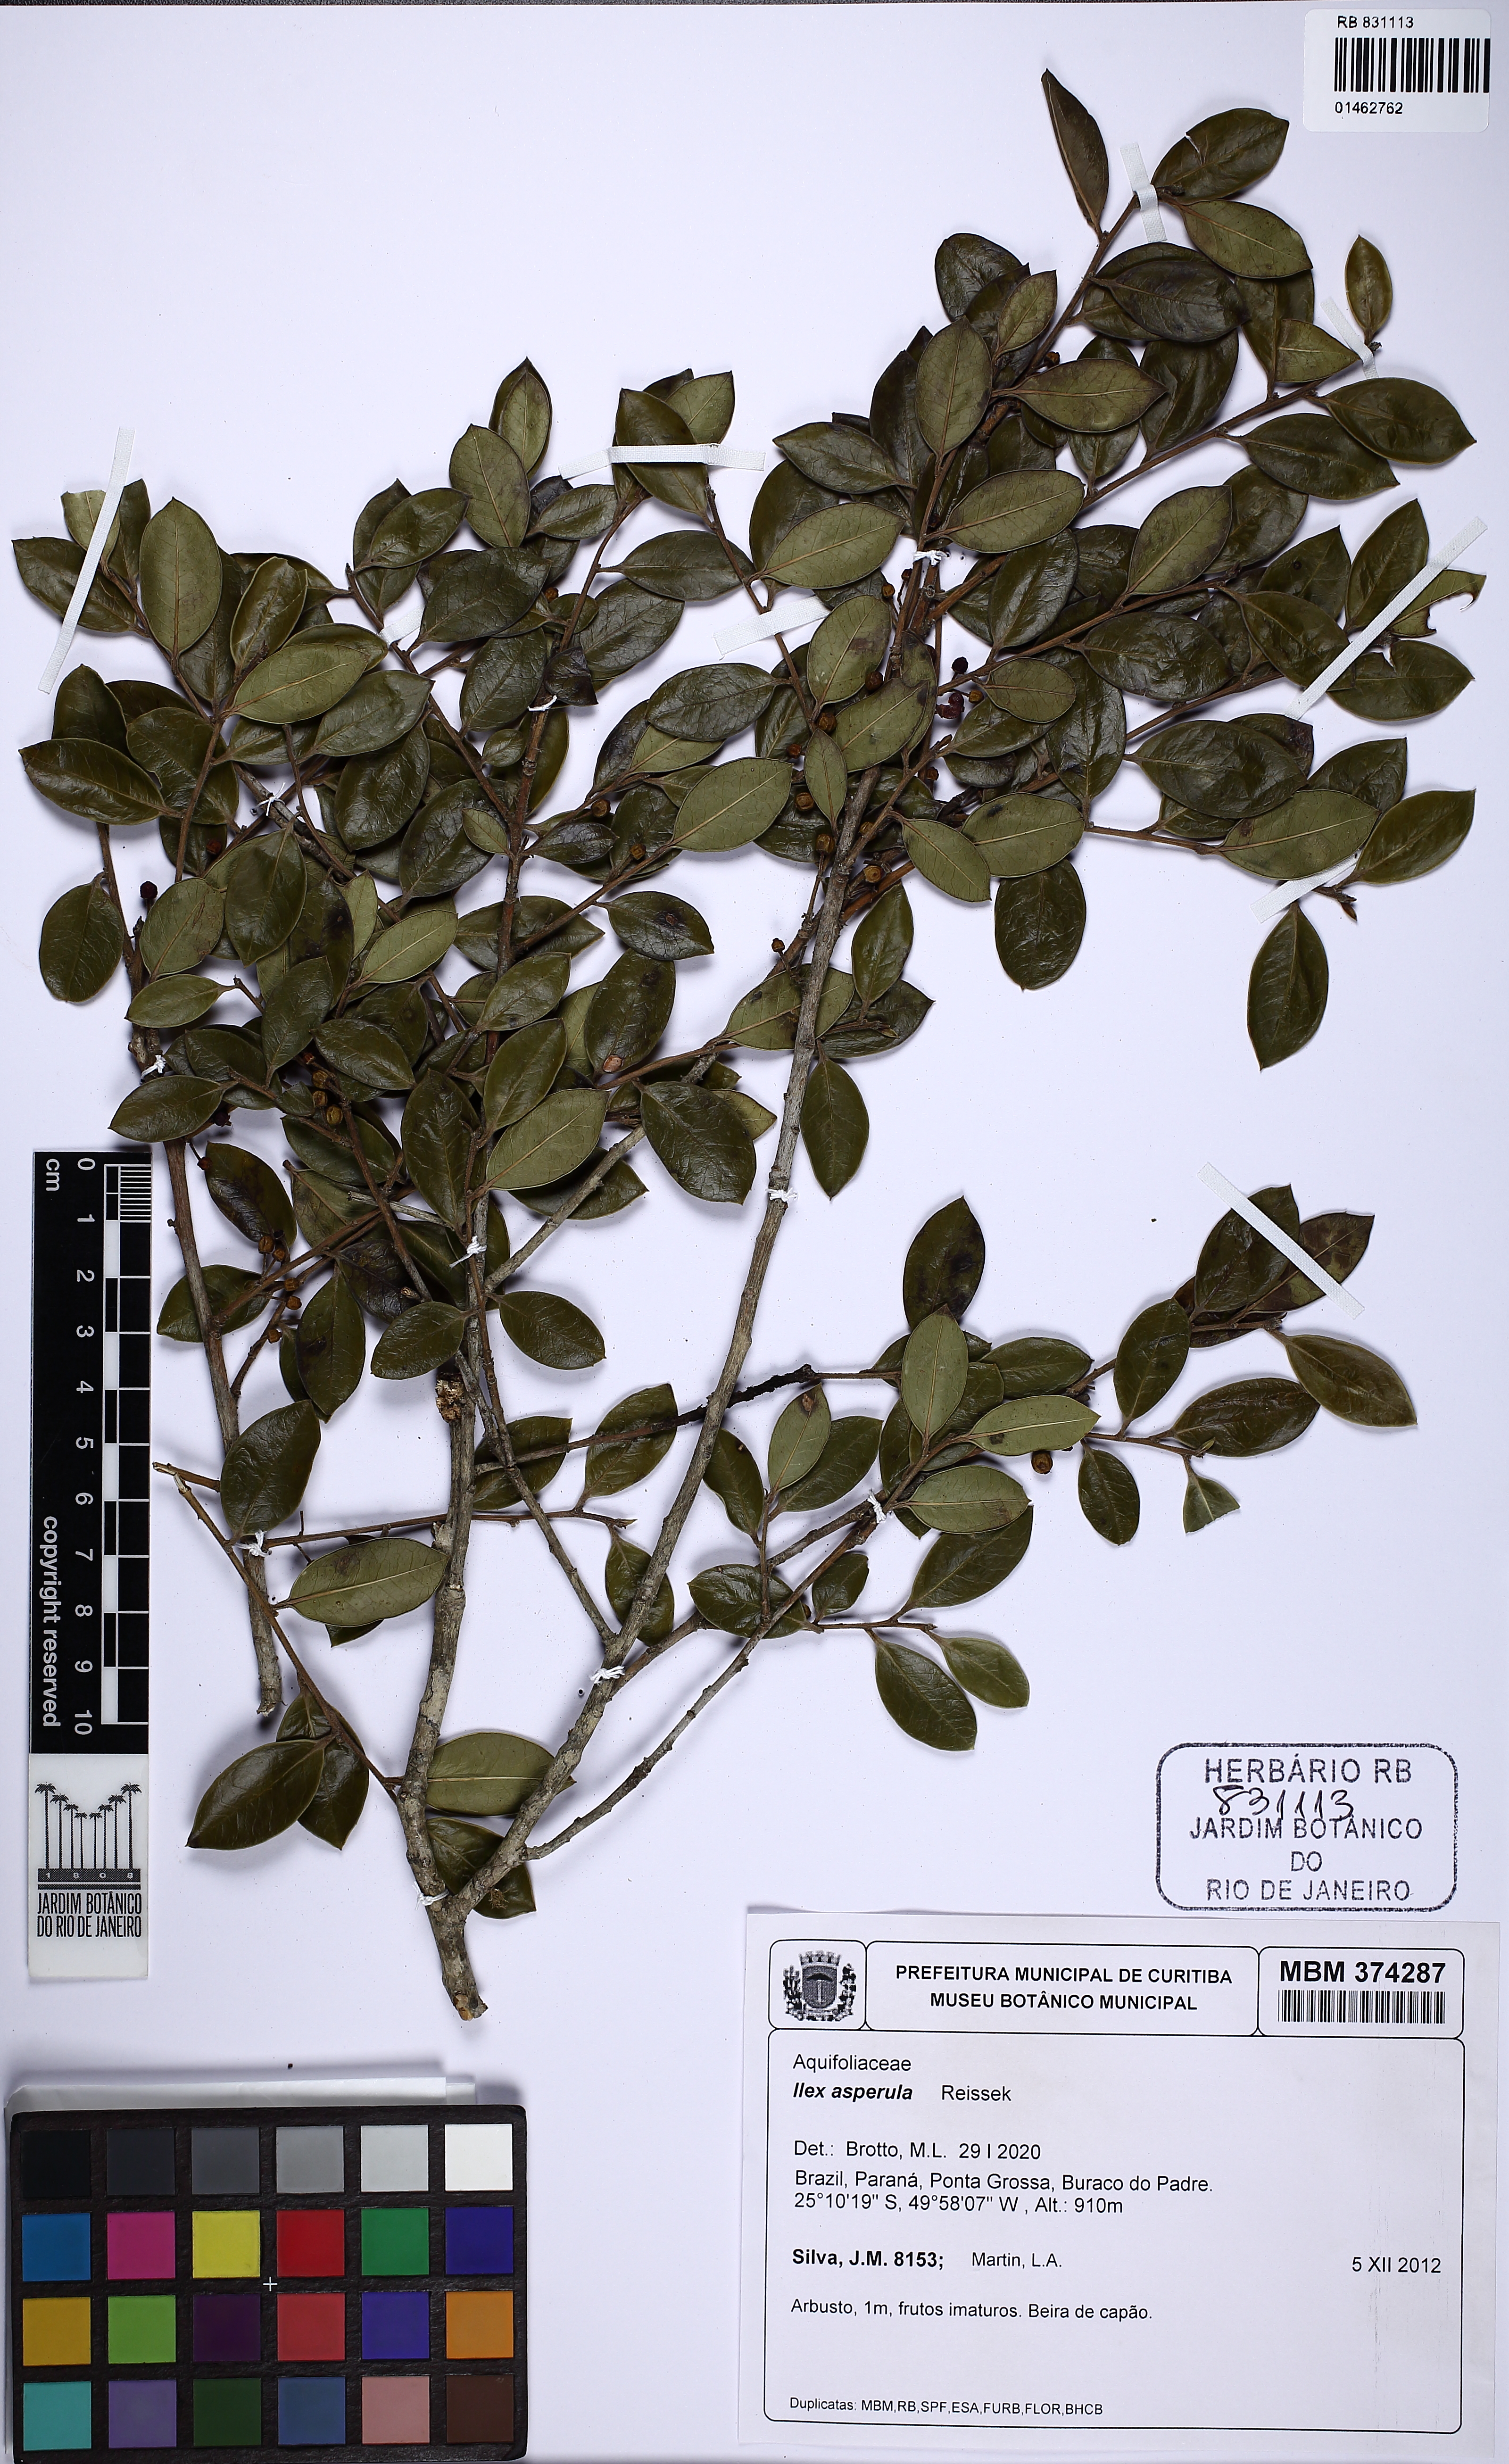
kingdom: Plantae
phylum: Tracheophyta
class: Magnoliopsida
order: Aquifoliales
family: Aquifoliaceae
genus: Ilex
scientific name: Ilex asperula
